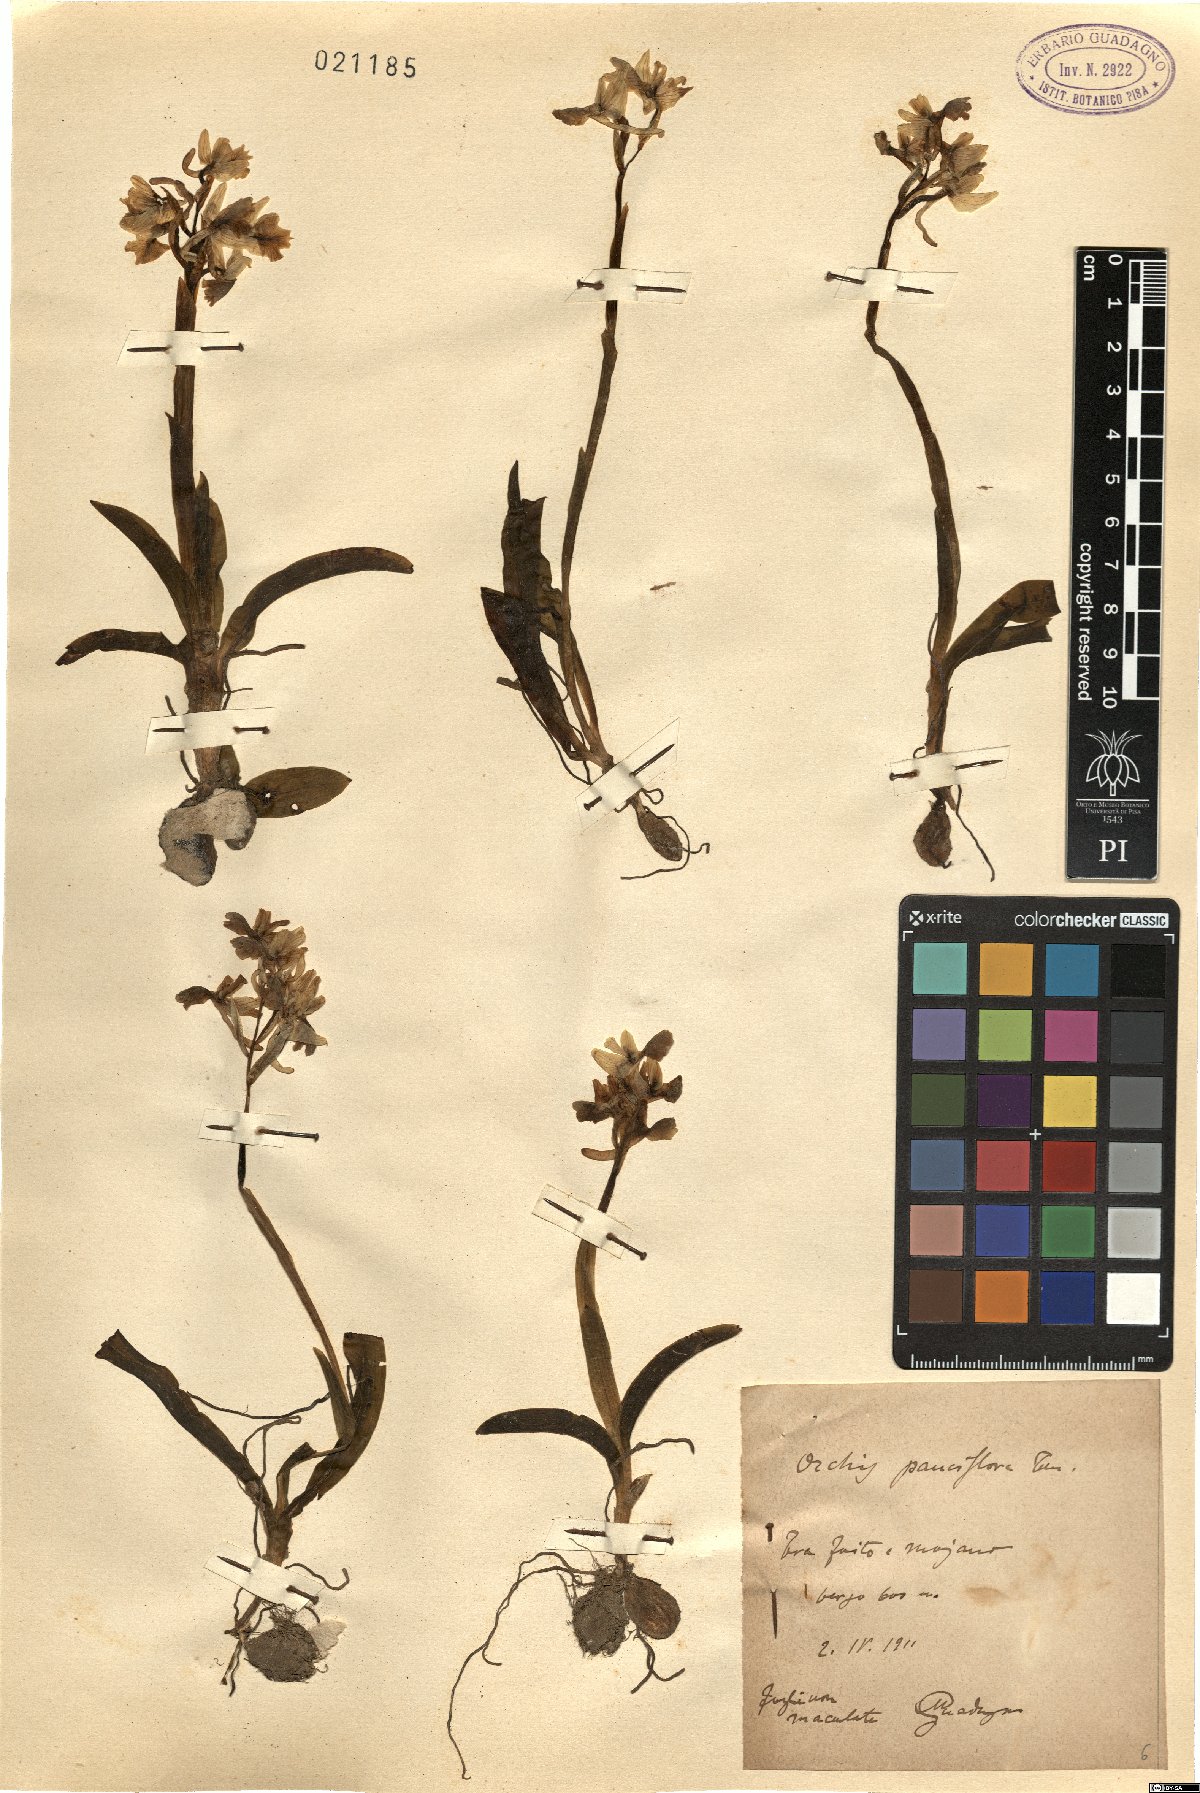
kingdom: Plantae
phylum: Tracheophyta
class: Liliopsida
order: Asparagales
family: Orchidaceae
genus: Orchis
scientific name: Orchis pauciflora
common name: Few-flowered orchid
